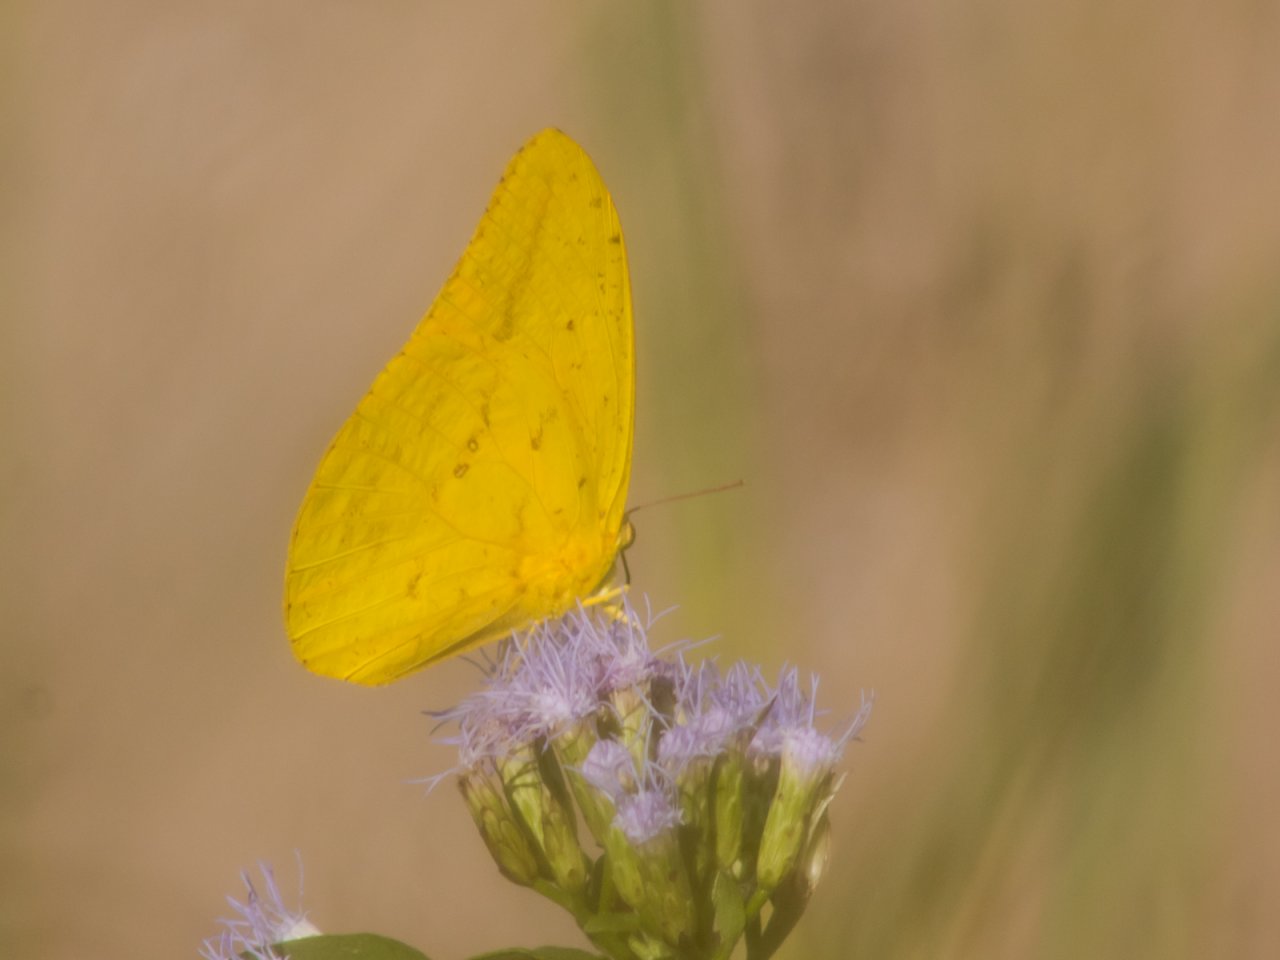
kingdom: Animalia
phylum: Arthropoda
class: Insecta
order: Lepidoptera
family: Pieridae
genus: Phoebis
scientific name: Phoebis agarithe
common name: Large Orange Sulphur
